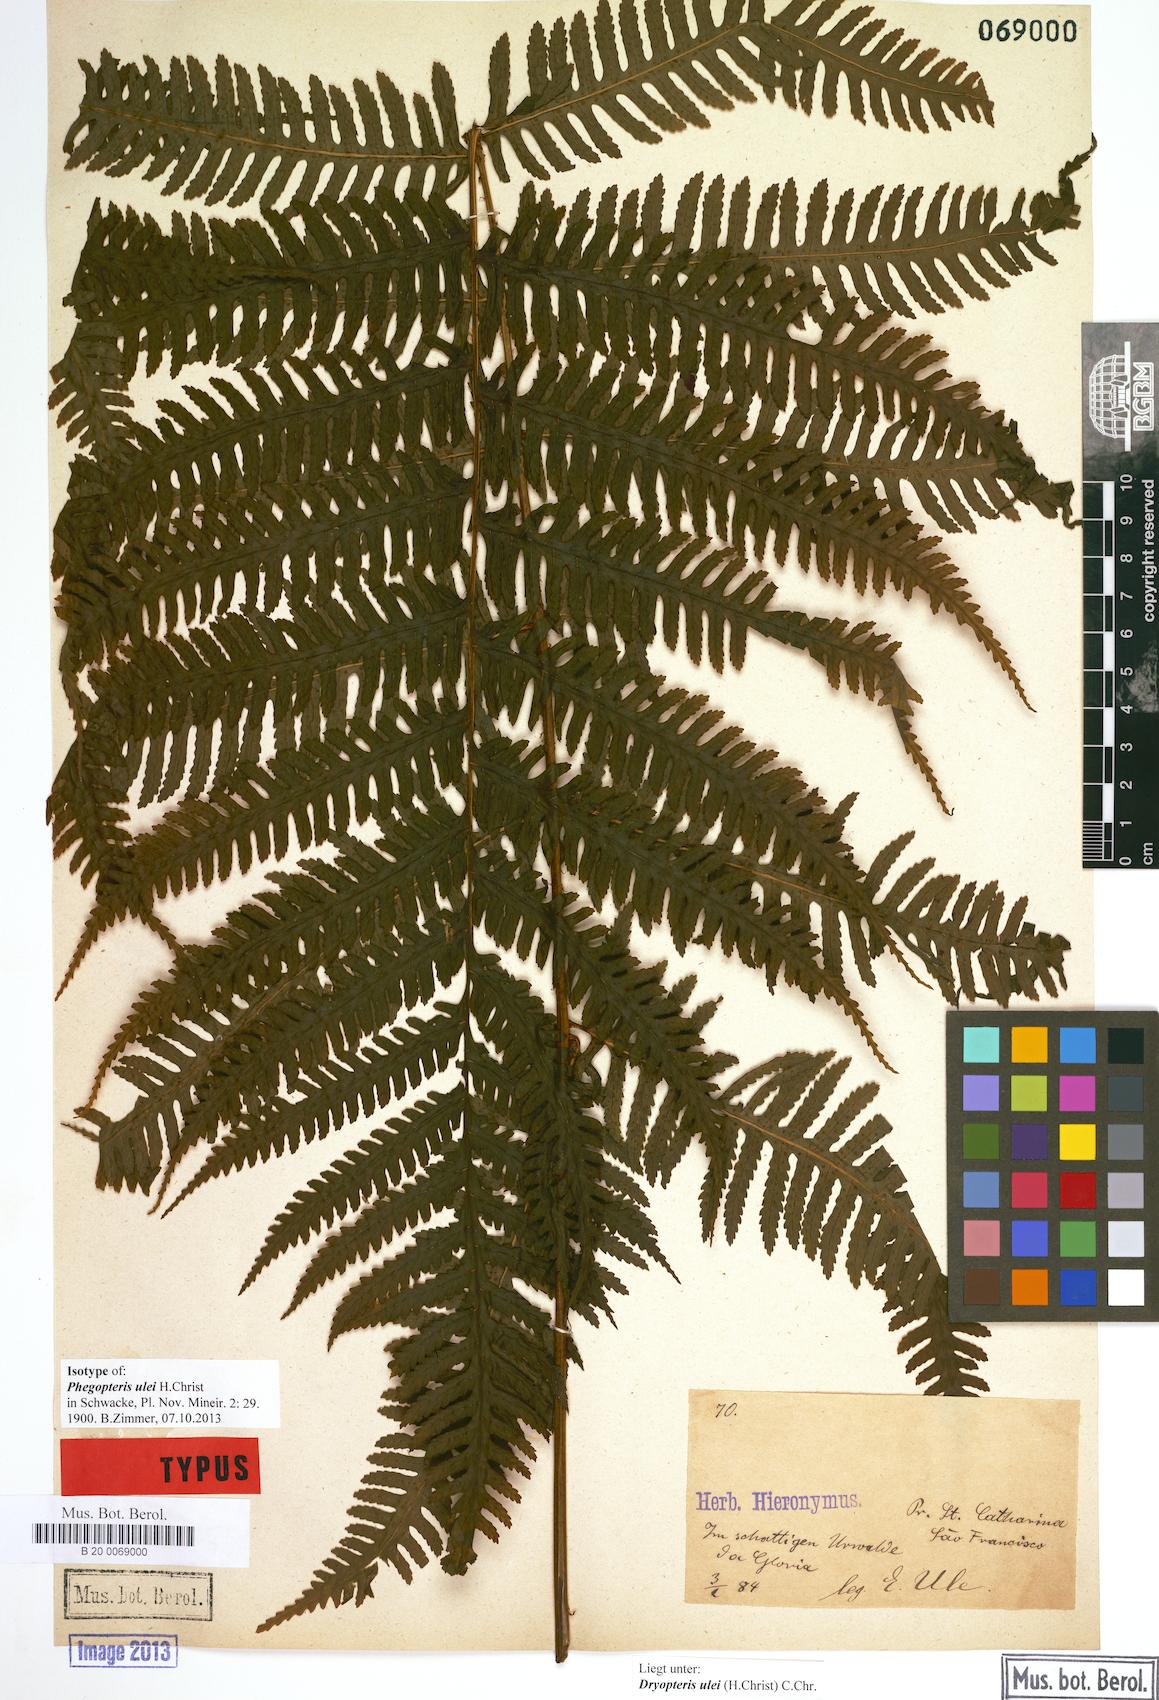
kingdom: Plantae
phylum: Tracheophyta
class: Polypodiopsida
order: Polypodiales
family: Dryopteridaceae
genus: Stigmatopteris
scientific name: Stigmatopteris ulei
